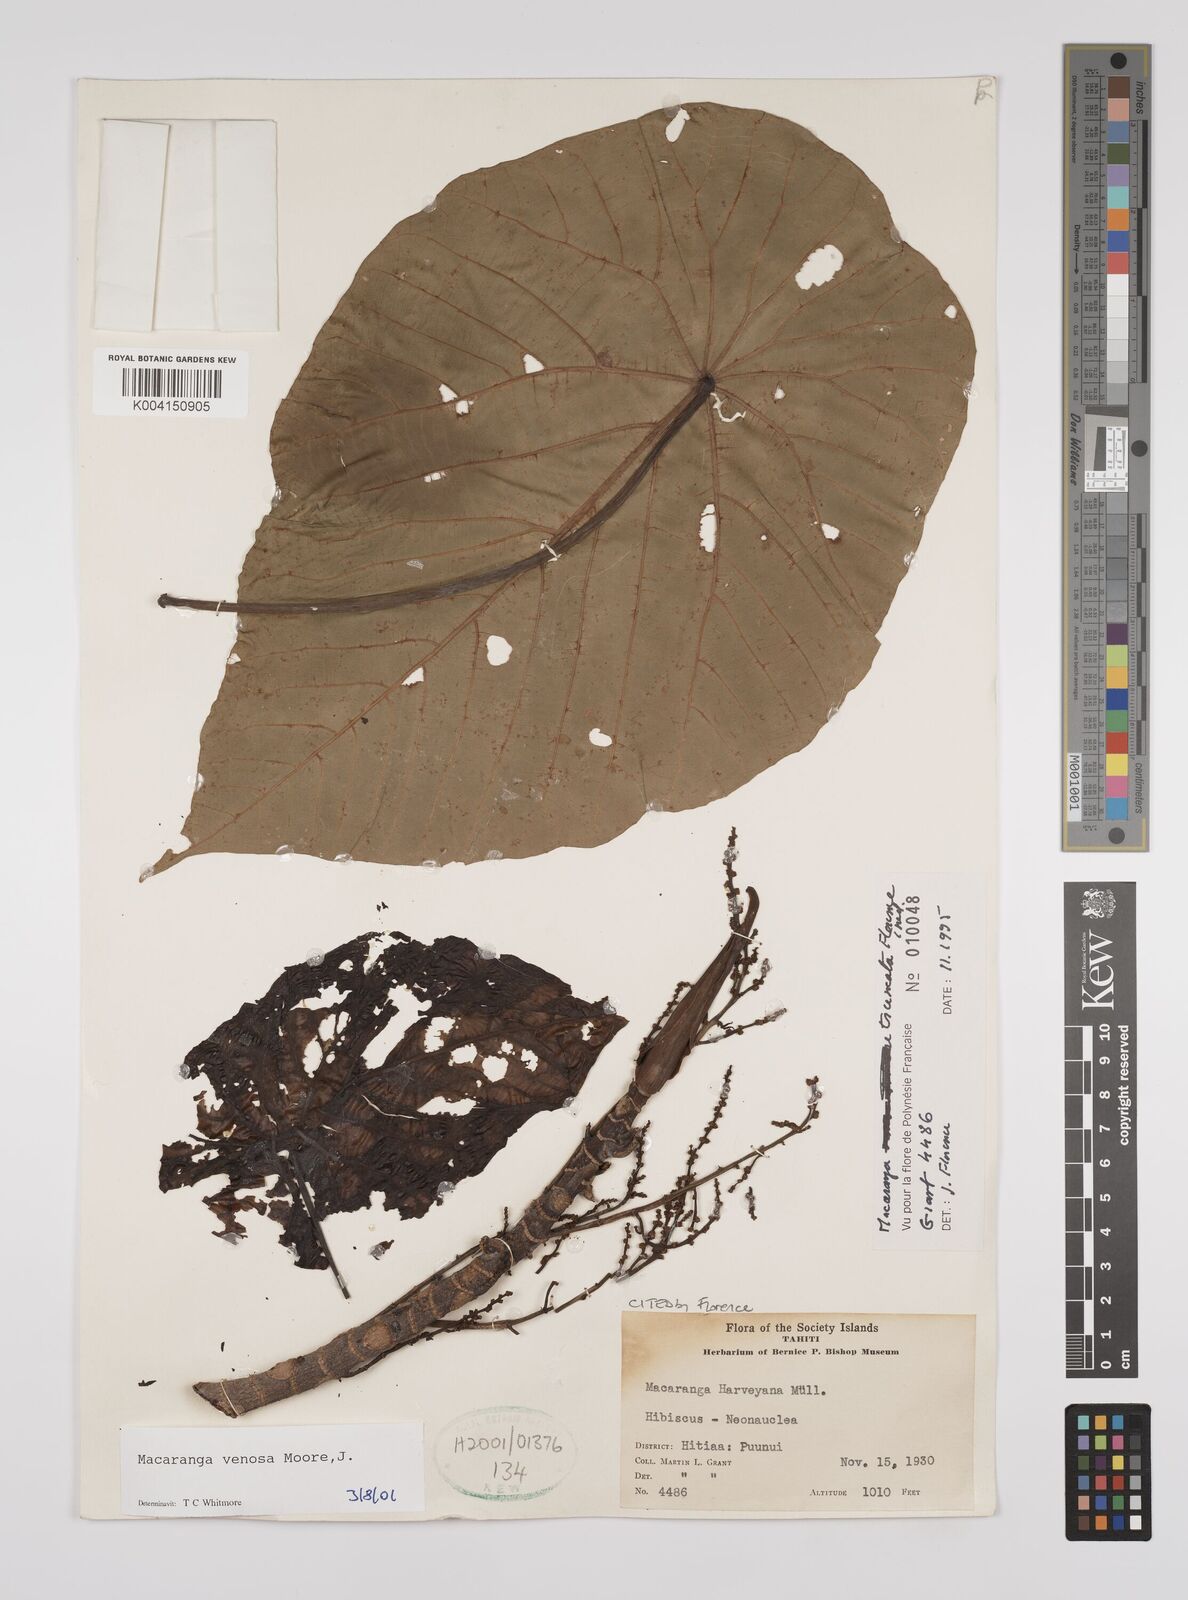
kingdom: Plantae
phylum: Tracheophyta
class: Magnoliopsida
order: Malpighiales
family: Euphorbiaceae
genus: Macaranga
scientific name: Macaranga venosa
